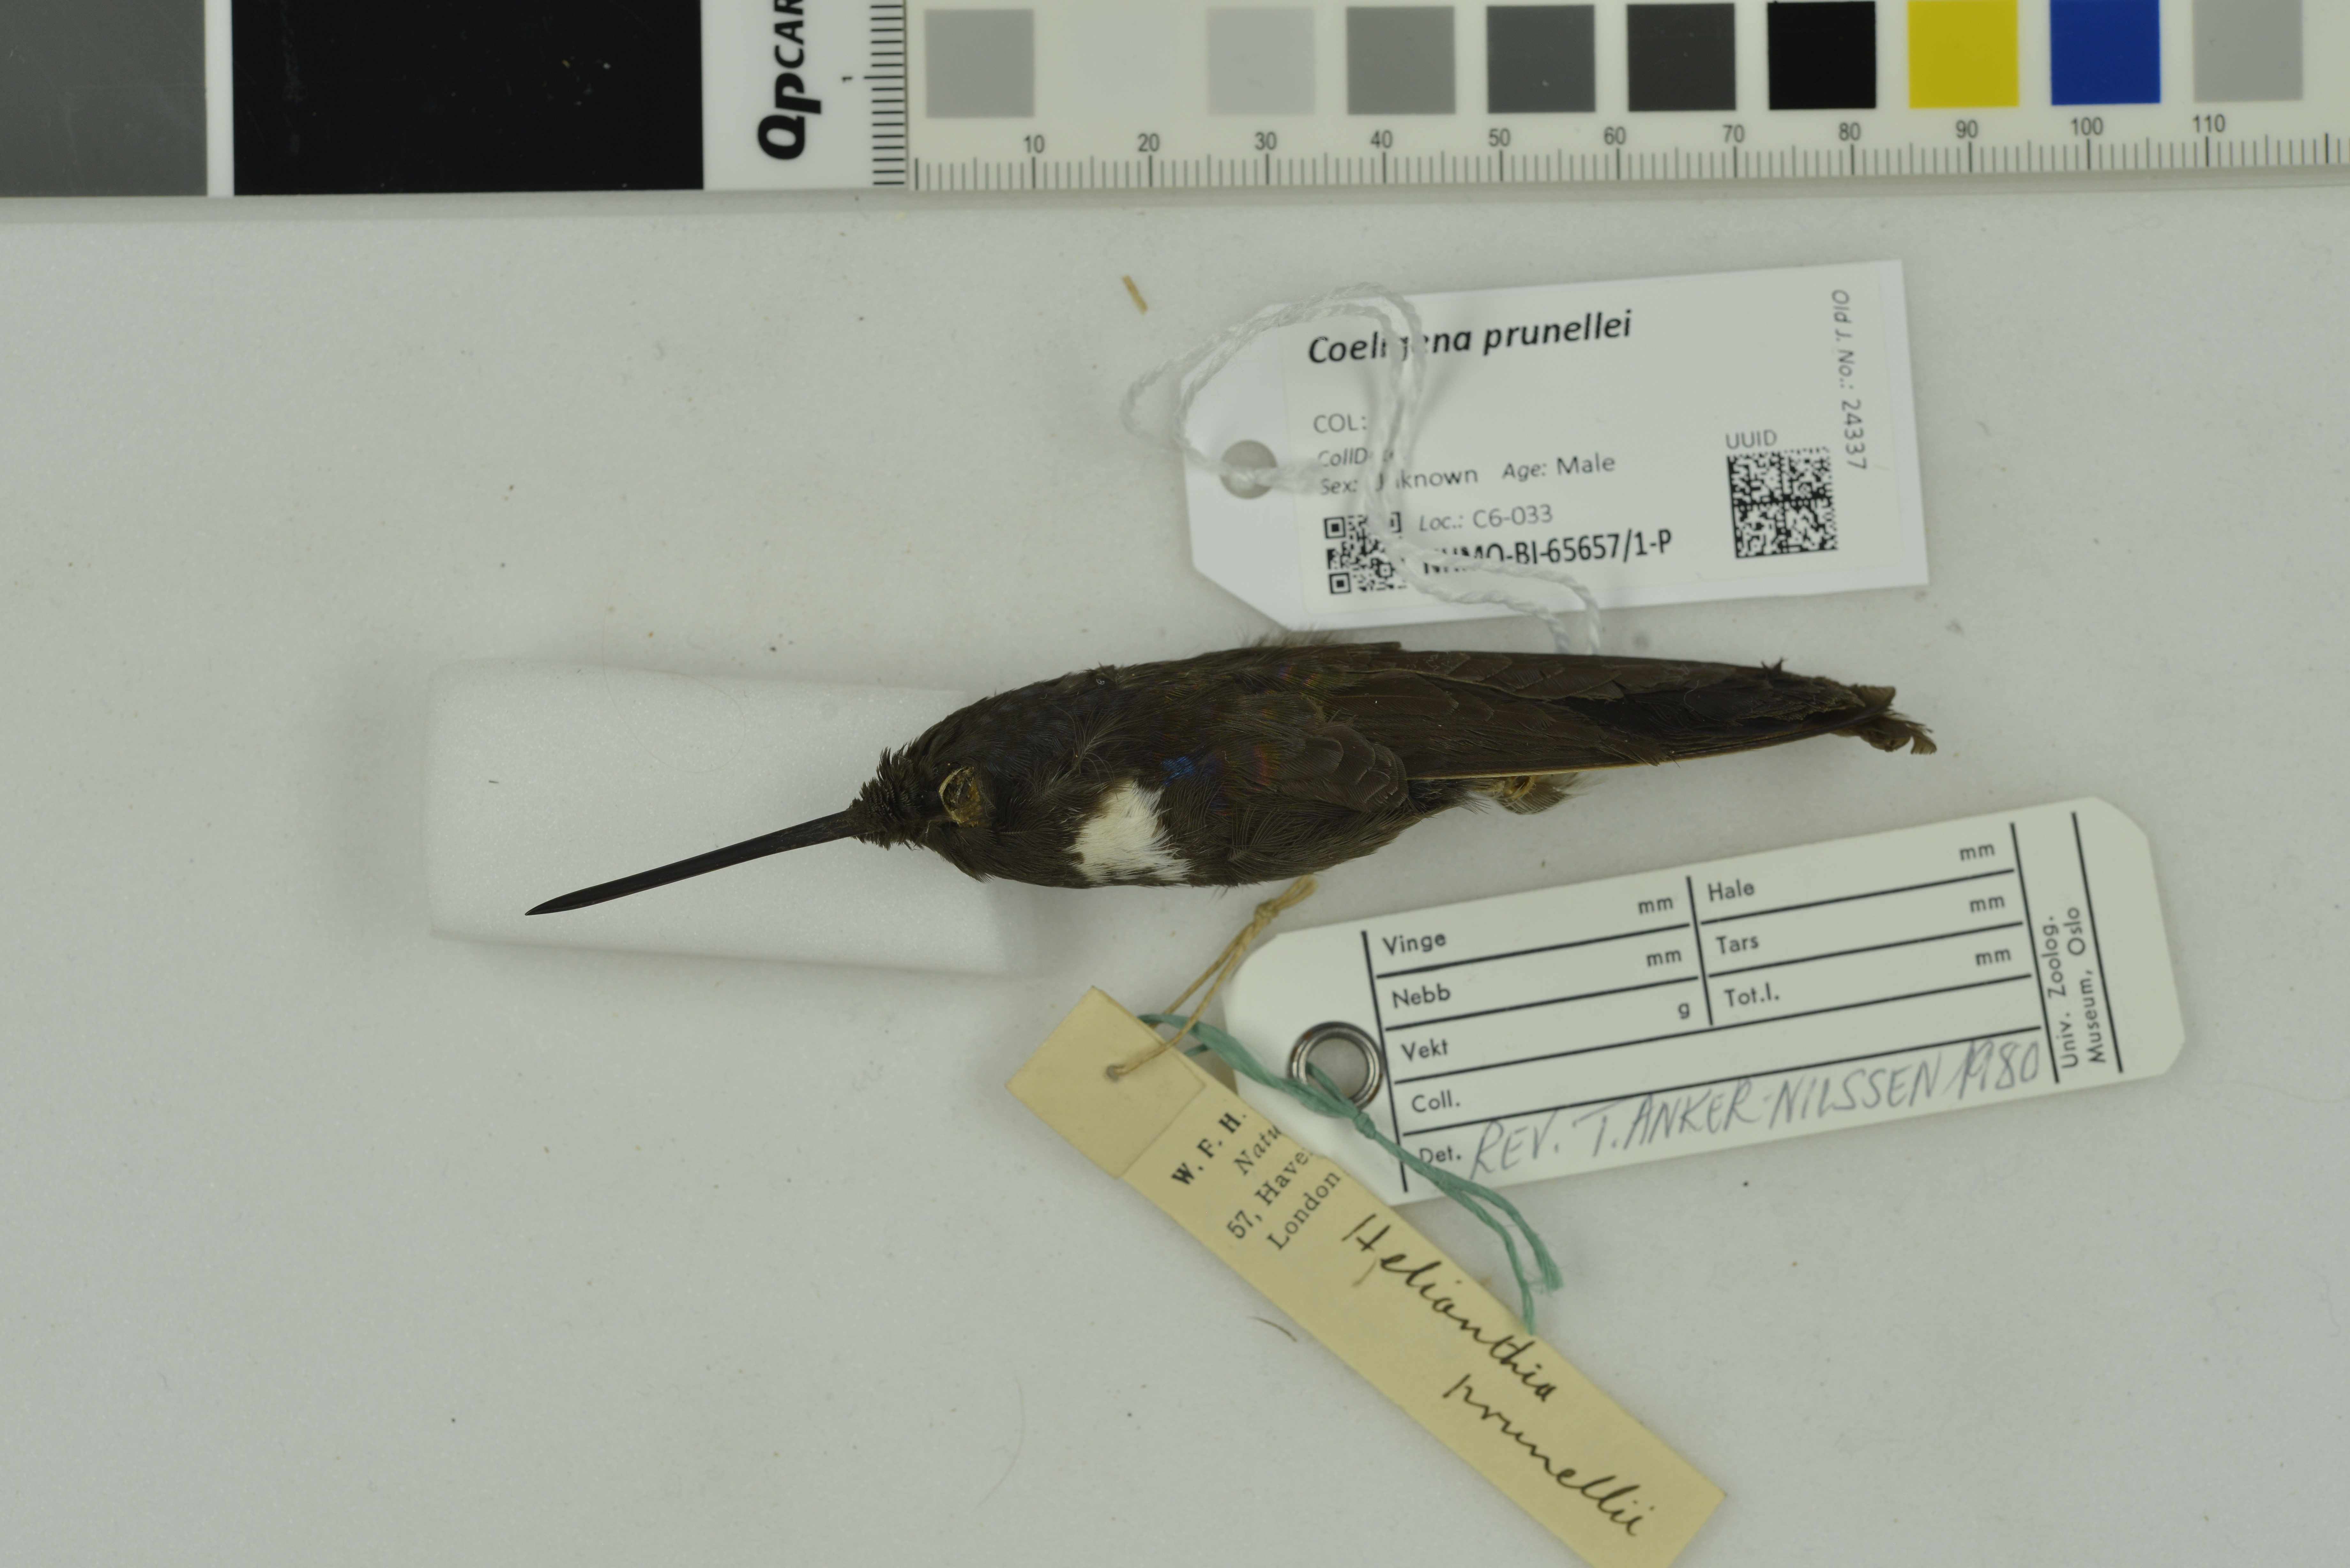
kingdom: Animalia
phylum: Chordata
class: Aves
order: Apodiformes
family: Trochilidae
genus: Coeligena
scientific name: Coeligena prunellei
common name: Black inca
